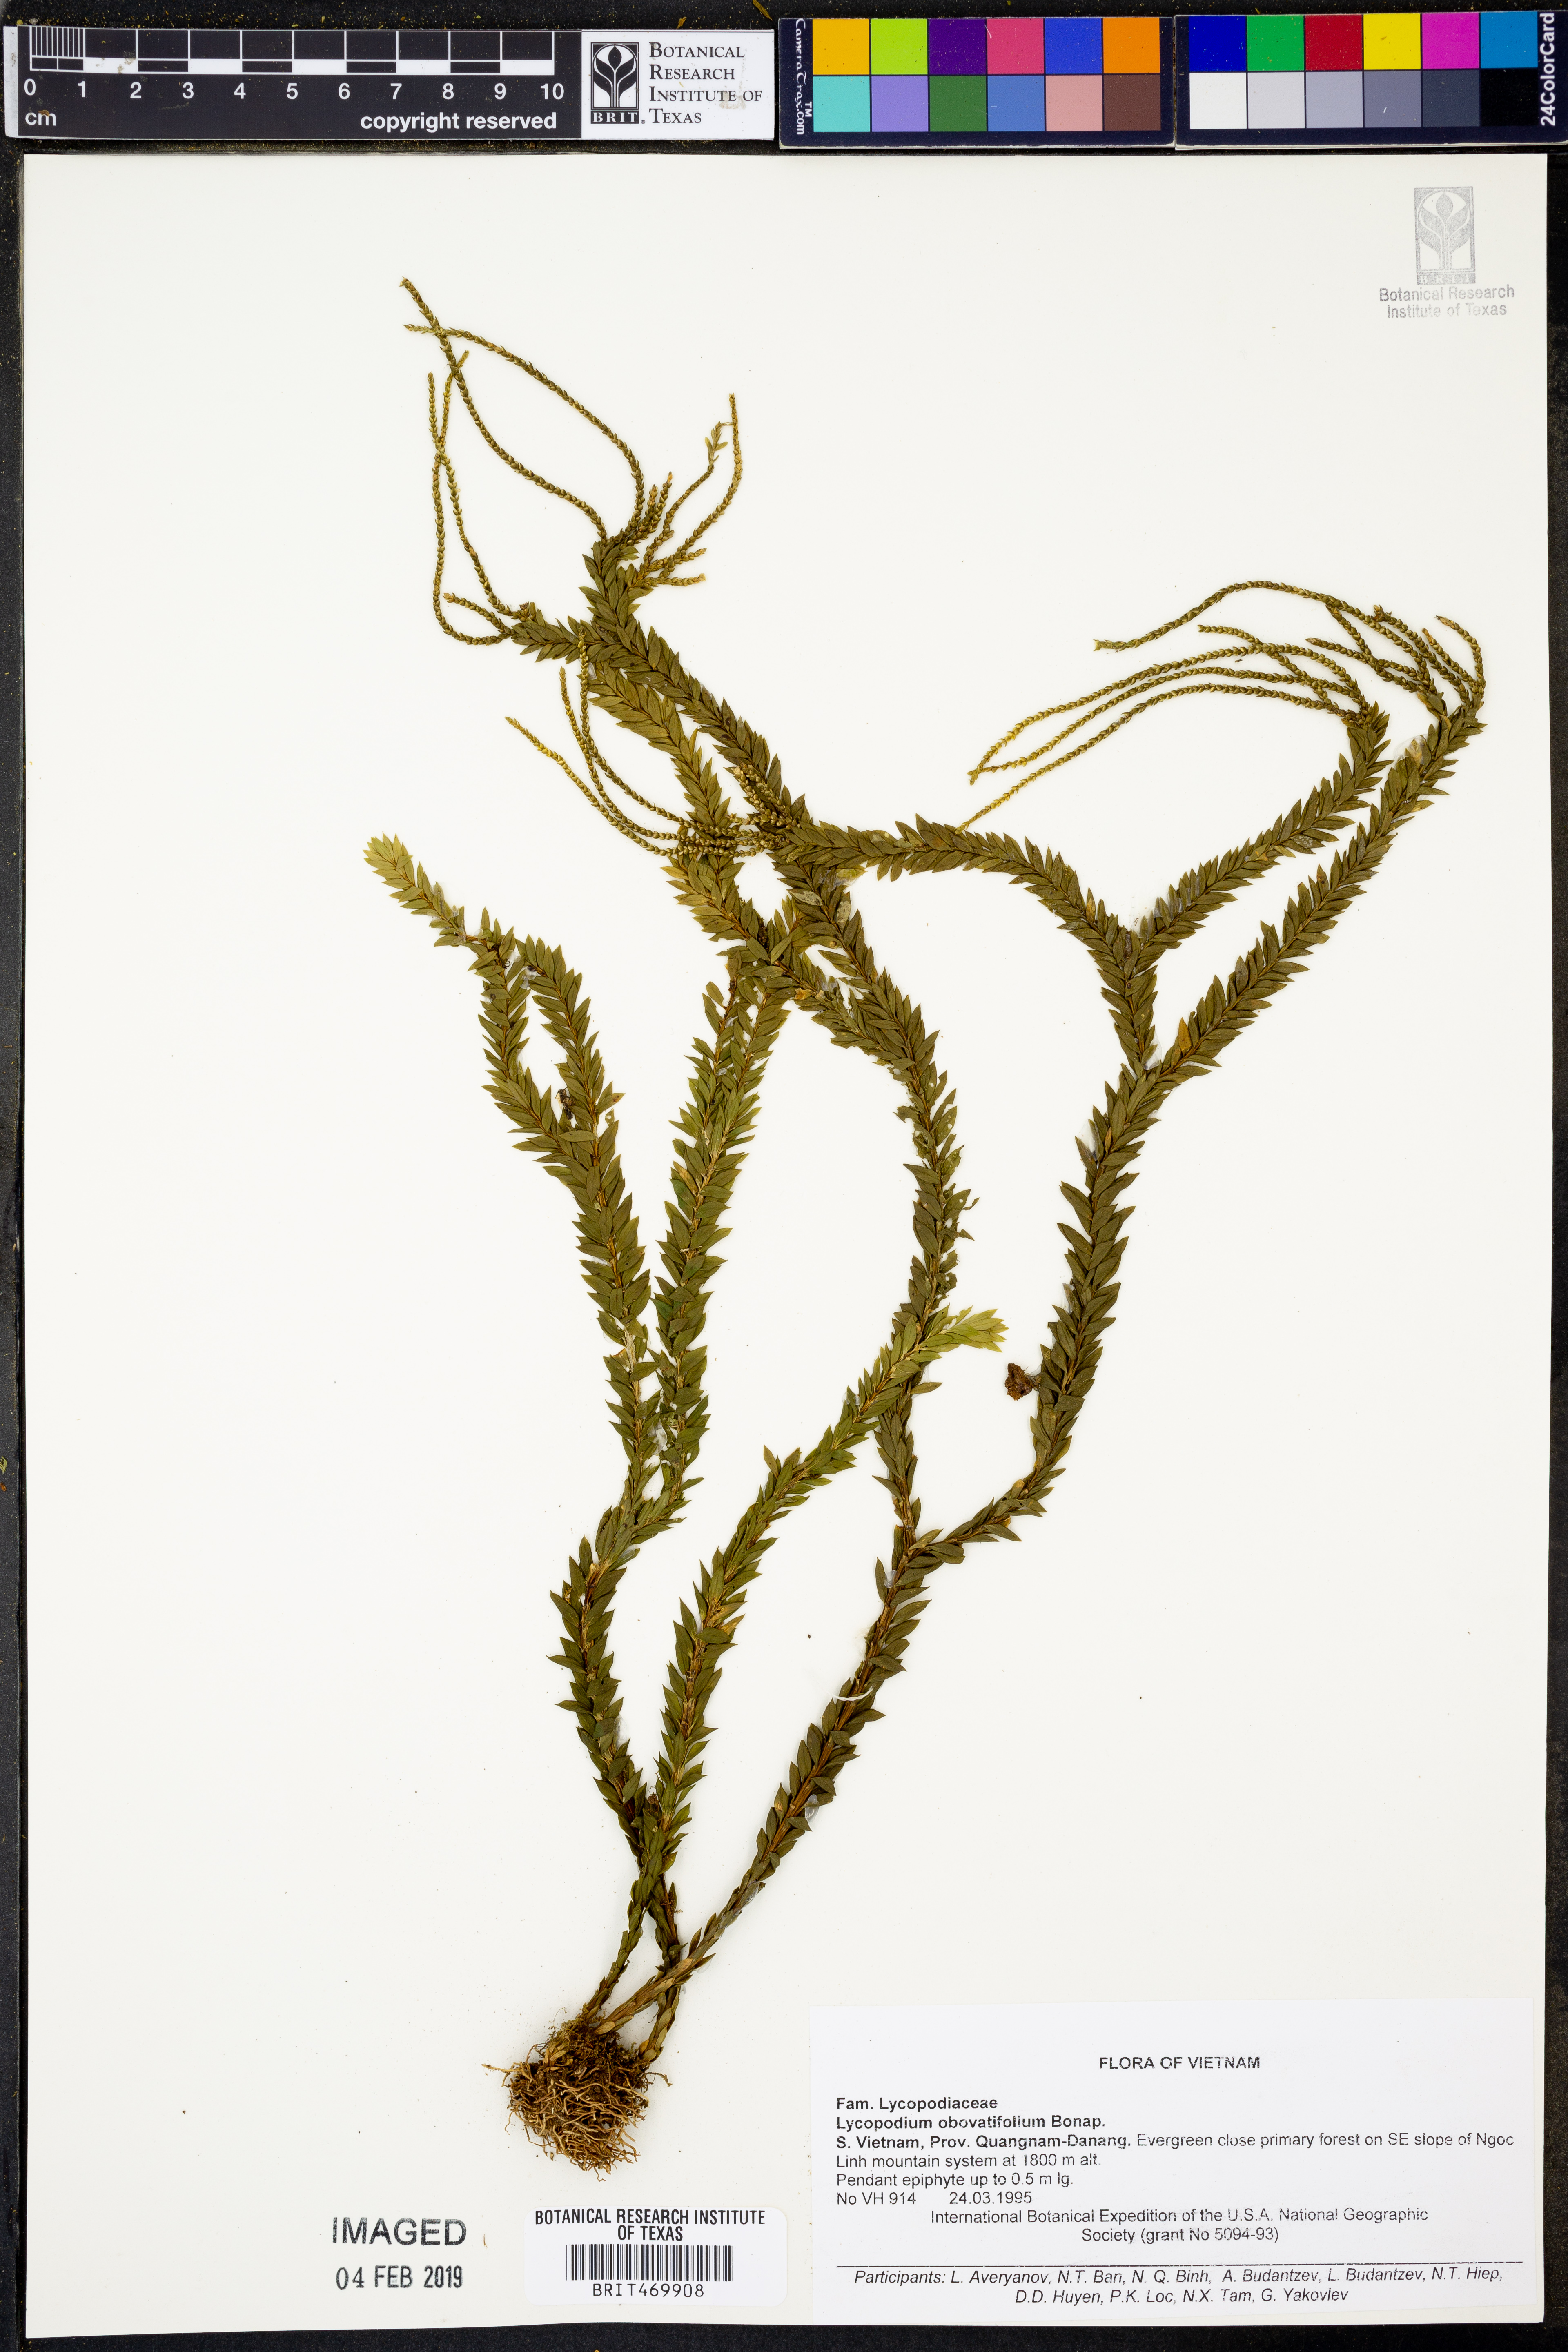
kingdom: Plantae
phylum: Tracheophyta
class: Lycopodiopsida
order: Lycopodiales
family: Lycopodiaceae
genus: Phlegmariurus
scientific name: Phlegmariurus obovalifolius
